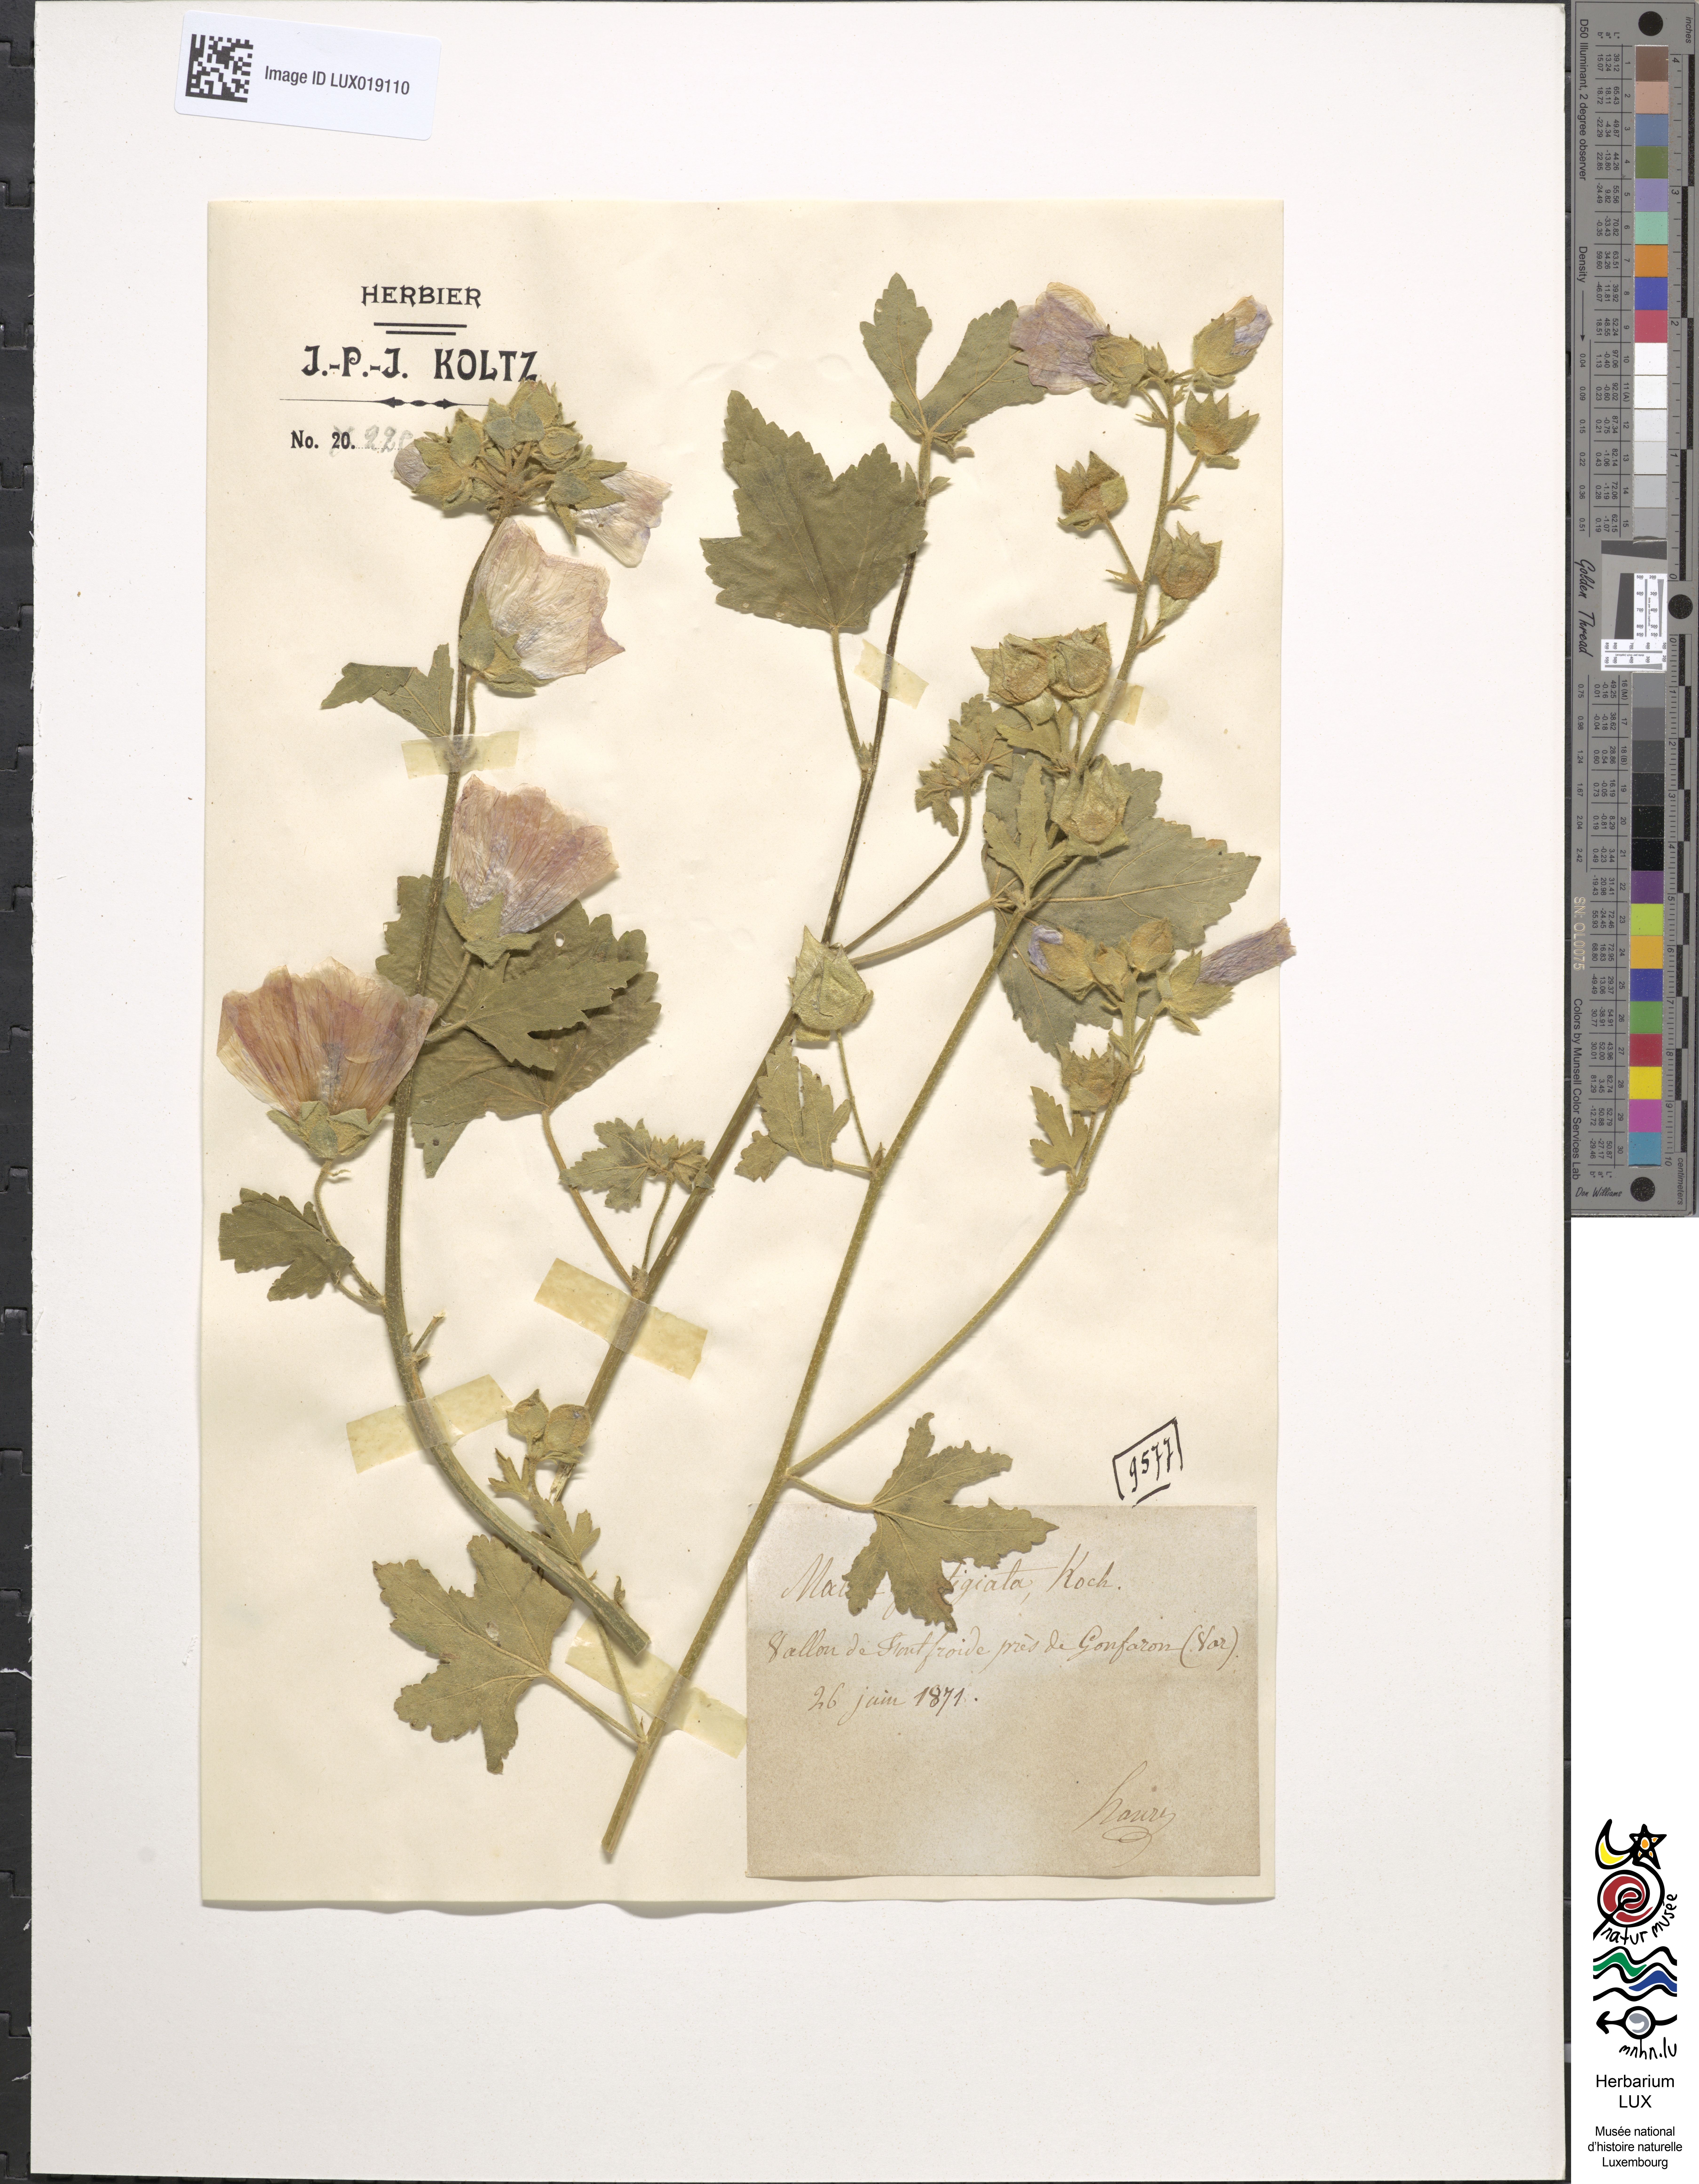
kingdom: Plantae
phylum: Tracheophyta
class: Magnoliopsida
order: Malvales
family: Malvaceae
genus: Malva
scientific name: Malva alcea
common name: Greater musk-mallow
